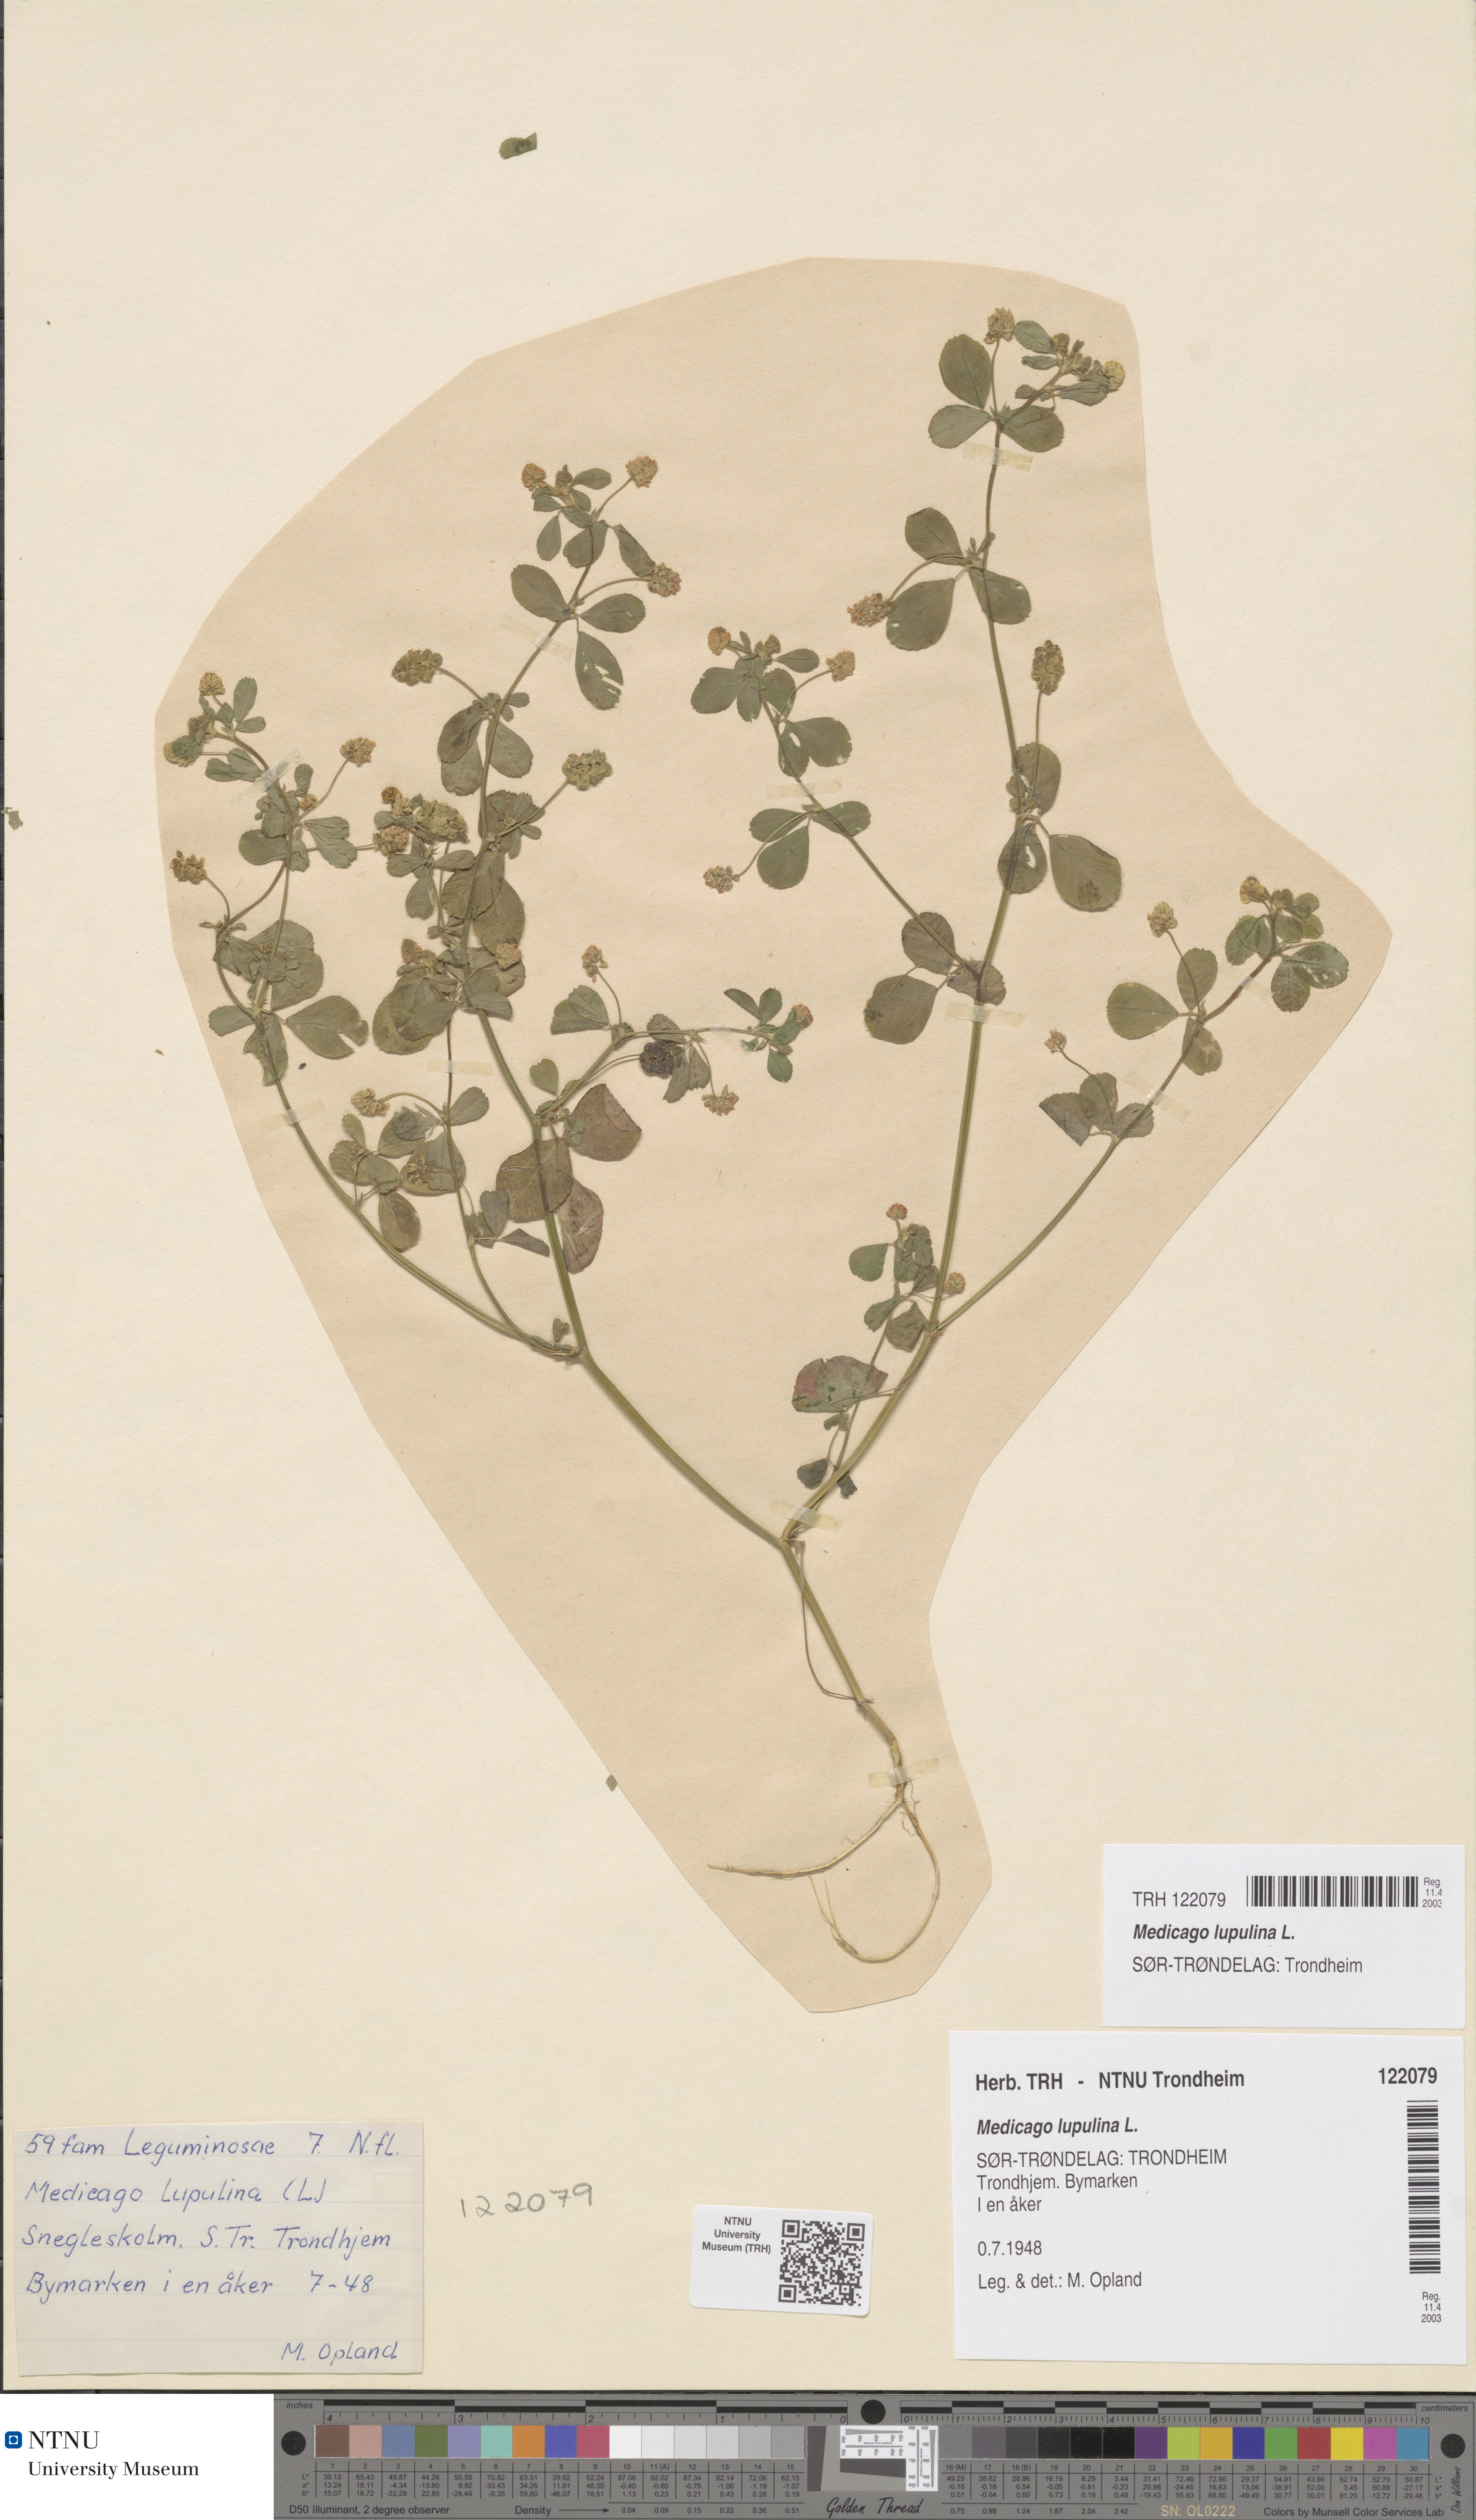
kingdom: Plantae
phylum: Tracheophyta
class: Magnoliopsida
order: Fabales
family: Fabaceae
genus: Medicago
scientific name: Medicago lupulina
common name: Black medick
